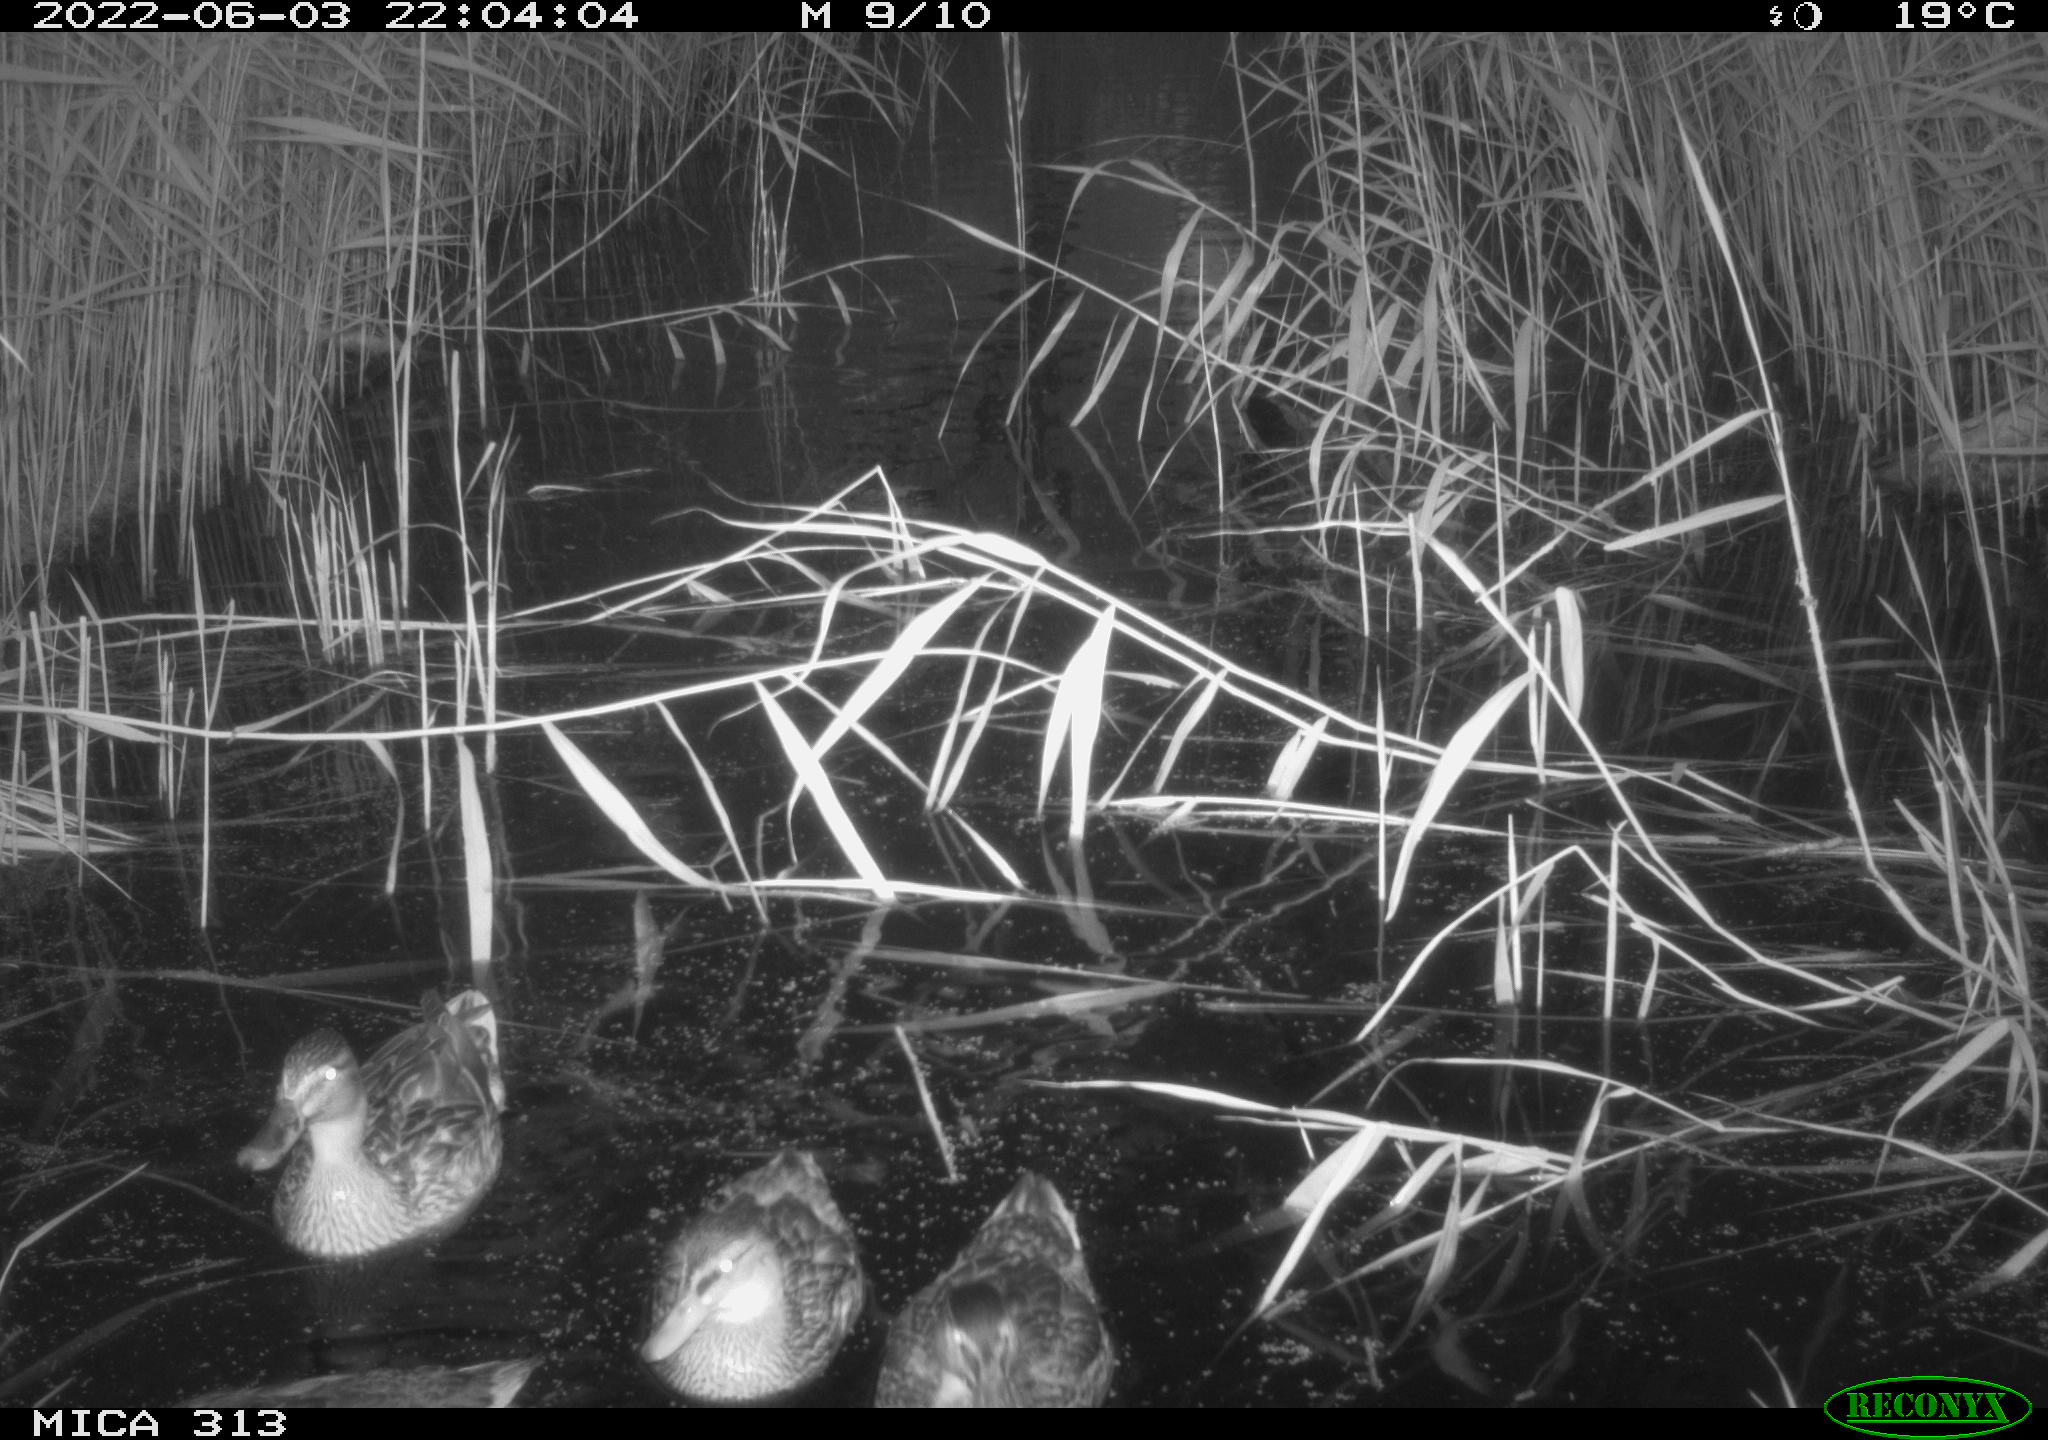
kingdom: Animalia
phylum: Chordata
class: Aves
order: Anseriformes
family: Anatidae
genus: Anas
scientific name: Anas platyrhynchos
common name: Mallard
